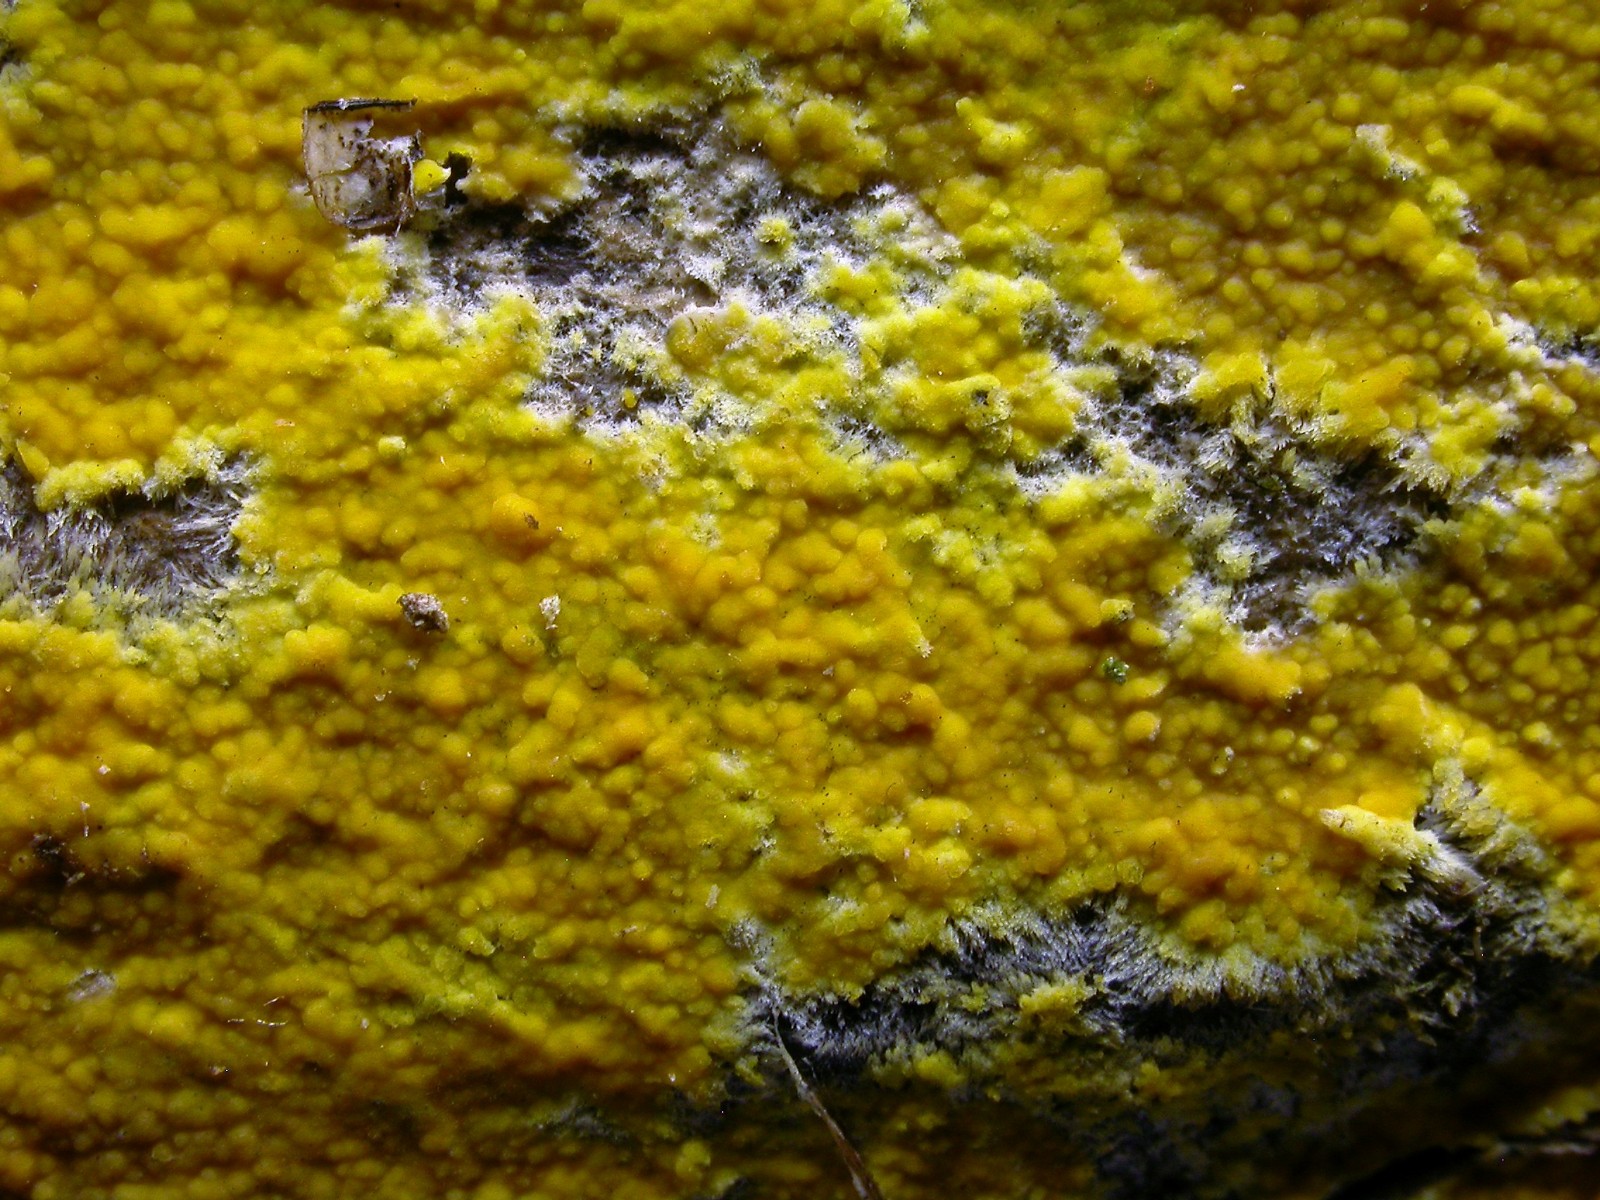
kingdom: Fungi
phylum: Basidiomycota
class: Agaricomycetes
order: Polyporales
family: Meruliaceae
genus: Phlebiodontia
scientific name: Phlebiodontia subochracea
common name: svovl-åresvamp
